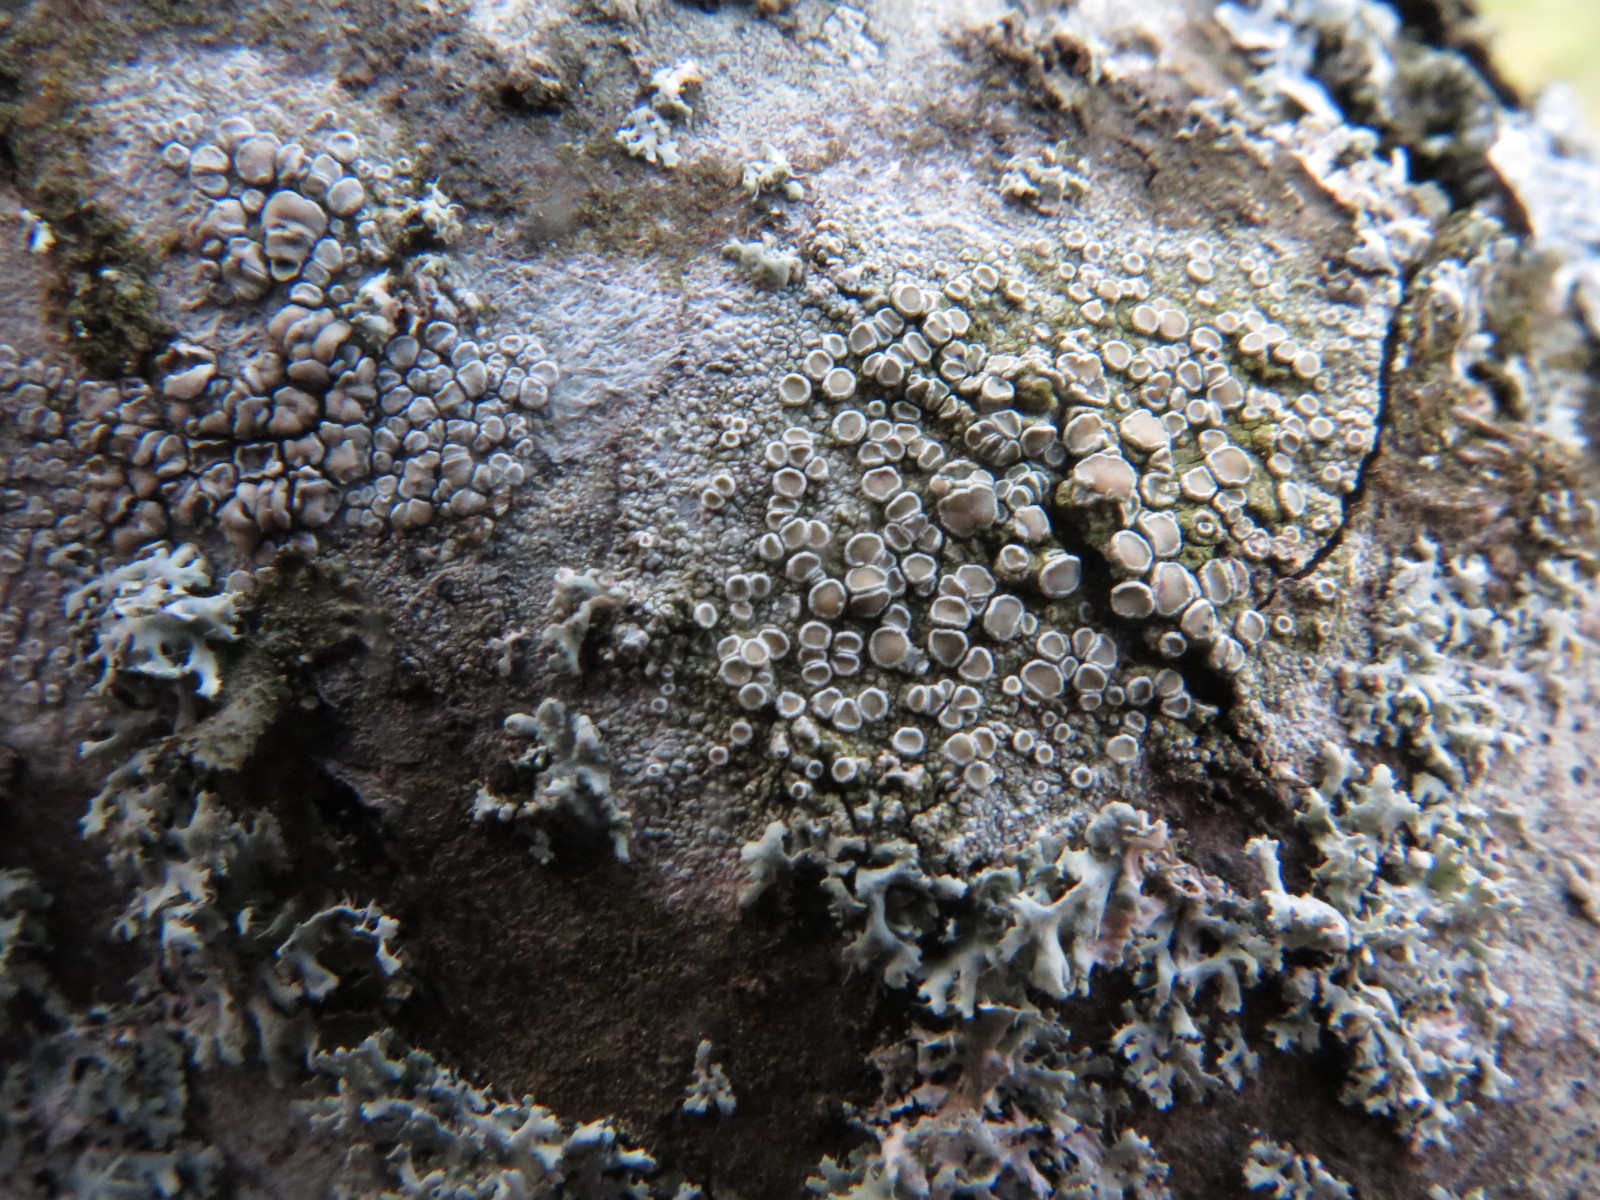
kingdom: Fungi
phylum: Ascomycota
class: Lecanoromycetes
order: Lecanorales
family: Lecanoraceae
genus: Lecanora
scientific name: Lecanora chlarotera
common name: brun kantskivelav
